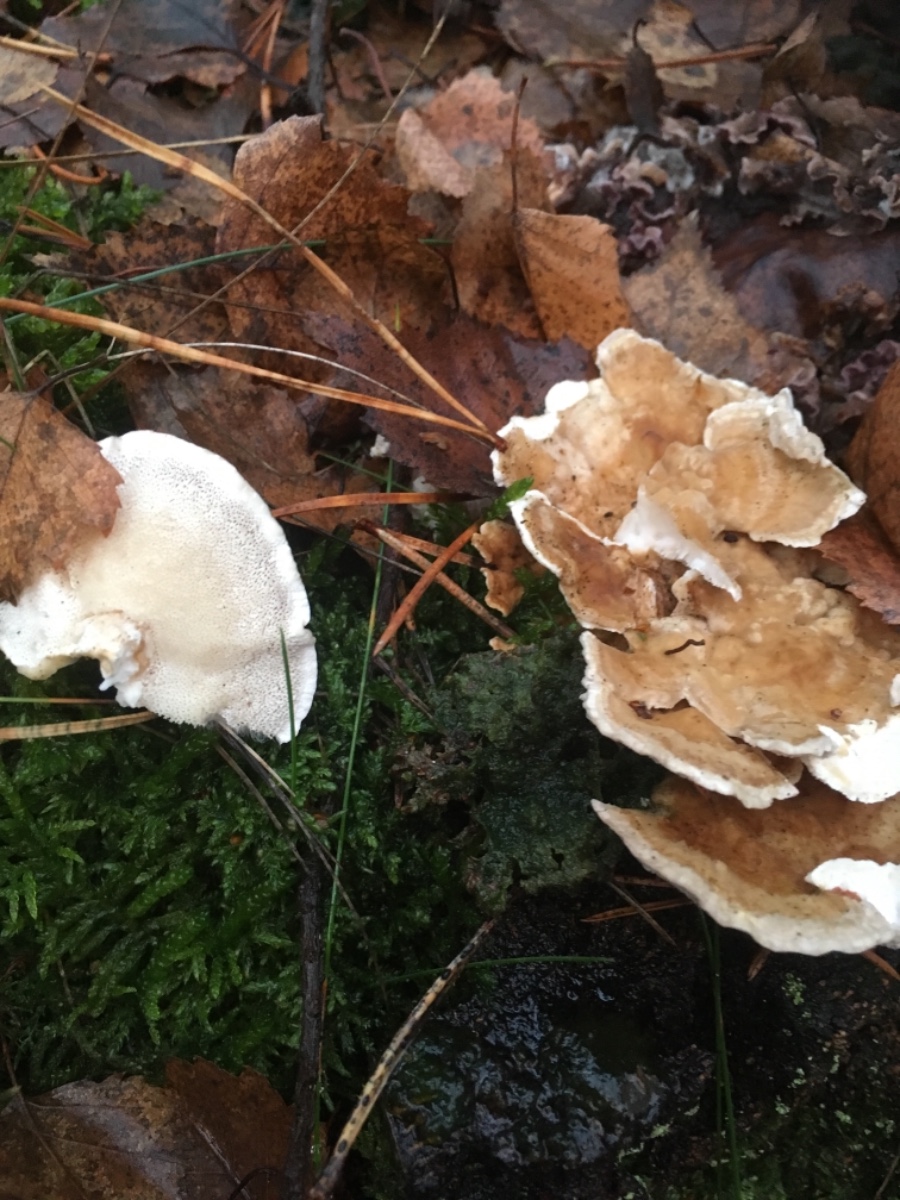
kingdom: Fungi
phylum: Basidiomycota
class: Agaricomycetes
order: Polyporales
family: Polyporaceae
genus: Trametes
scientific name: Trametes versicolor
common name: broget læderporesvamp
